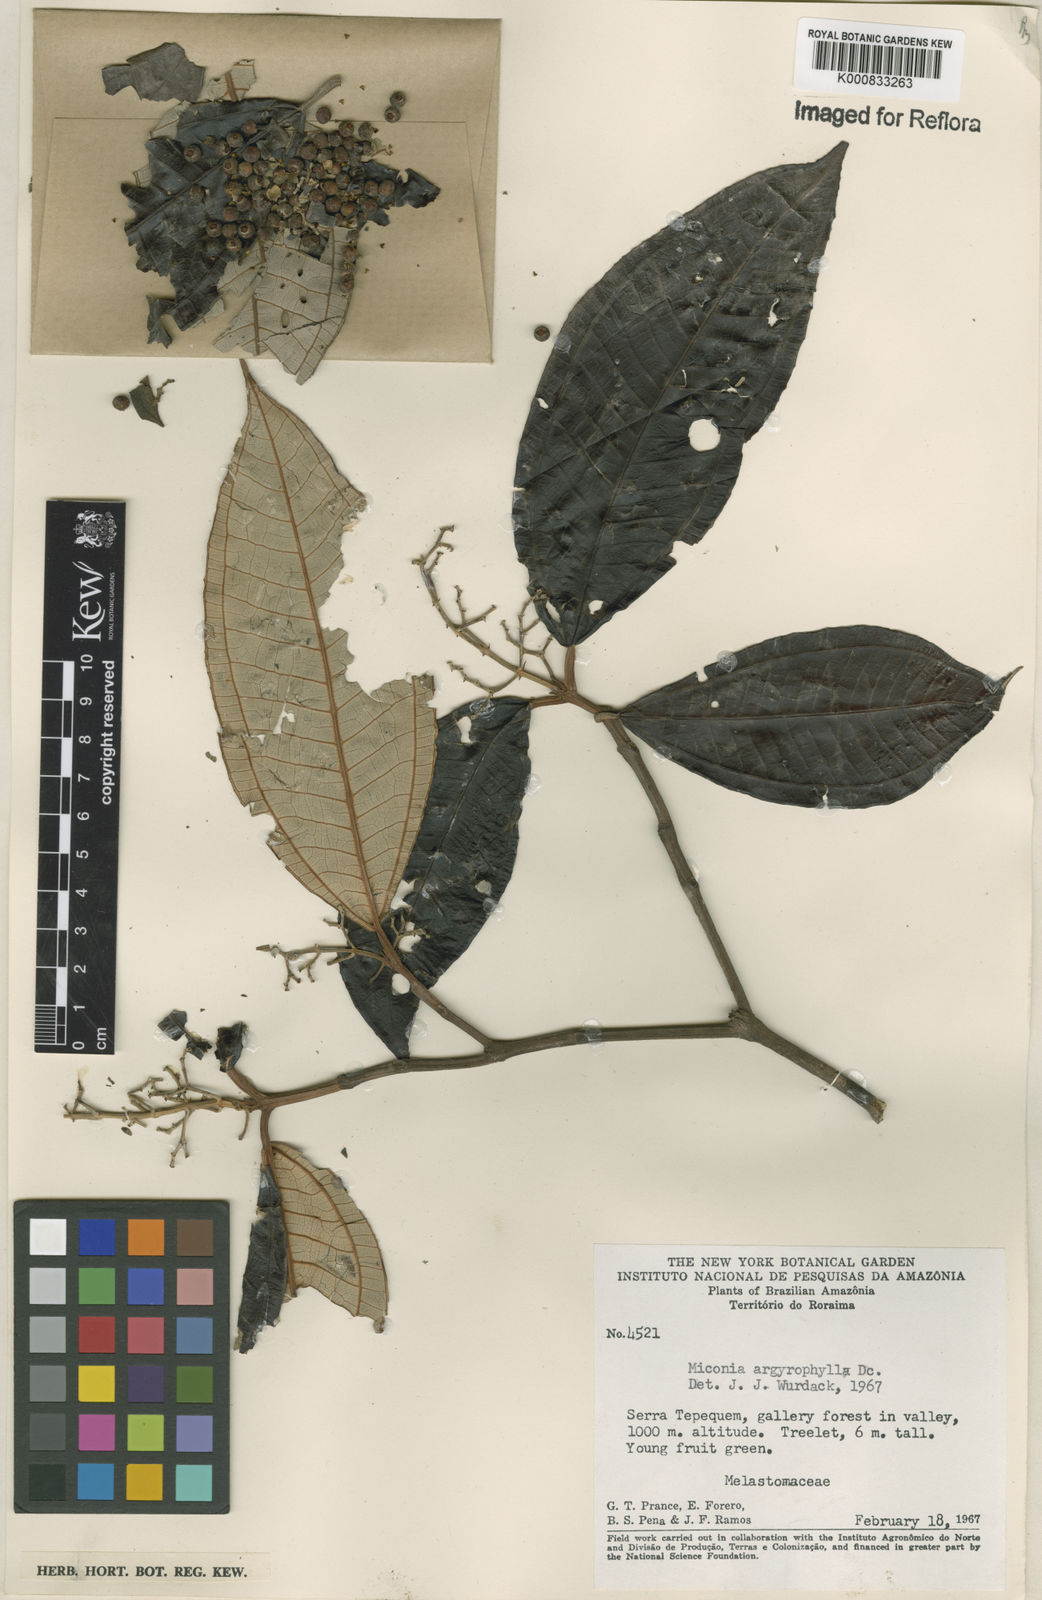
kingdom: Plantae
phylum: Tracheophyta
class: Magnoliopsida
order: Myrtales
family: Melastomataceae
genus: Miconia
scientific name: Miconia argyrophylla
